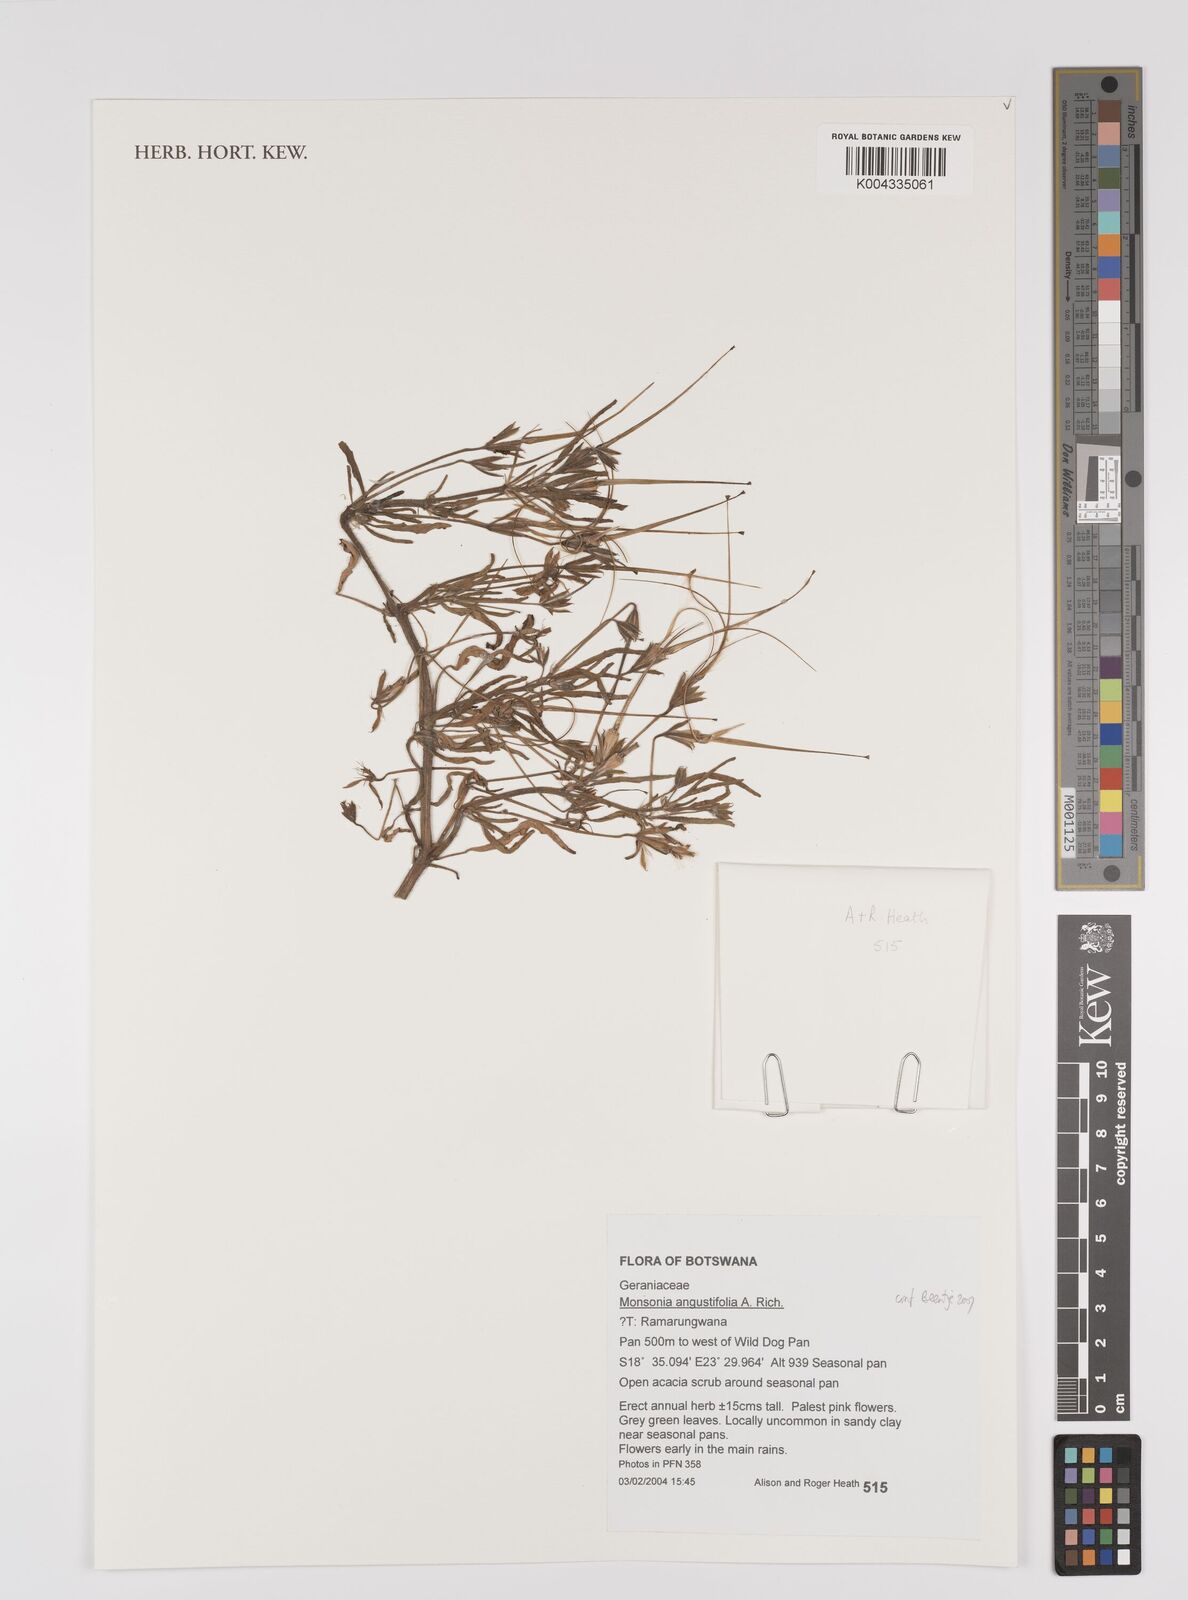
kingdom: Plantae
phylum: Tracheophyta
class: Magnoliopsida
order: Geraniales
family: Geraniaceae
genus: Monsonia
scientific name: Monsonia angustifolia
